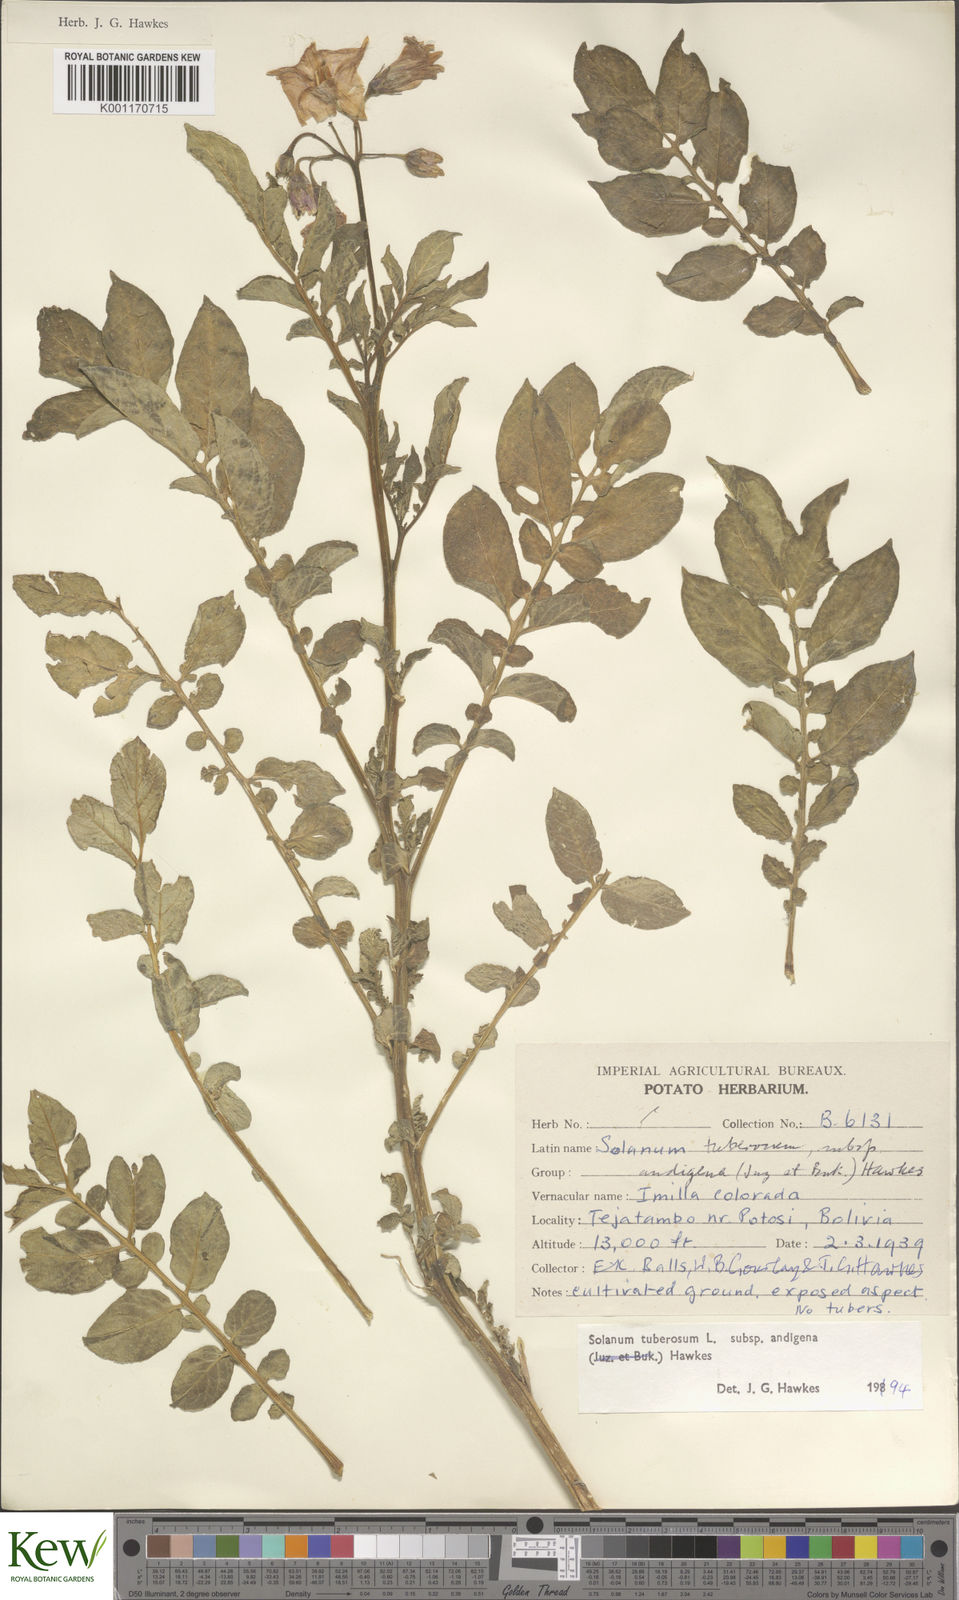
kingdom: Plantae
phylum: Tracheophyta
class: Magnoliopsida
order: Solanales
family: Solanaceae
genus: Solanum
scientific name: Solanum tuberosum
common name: Potato
